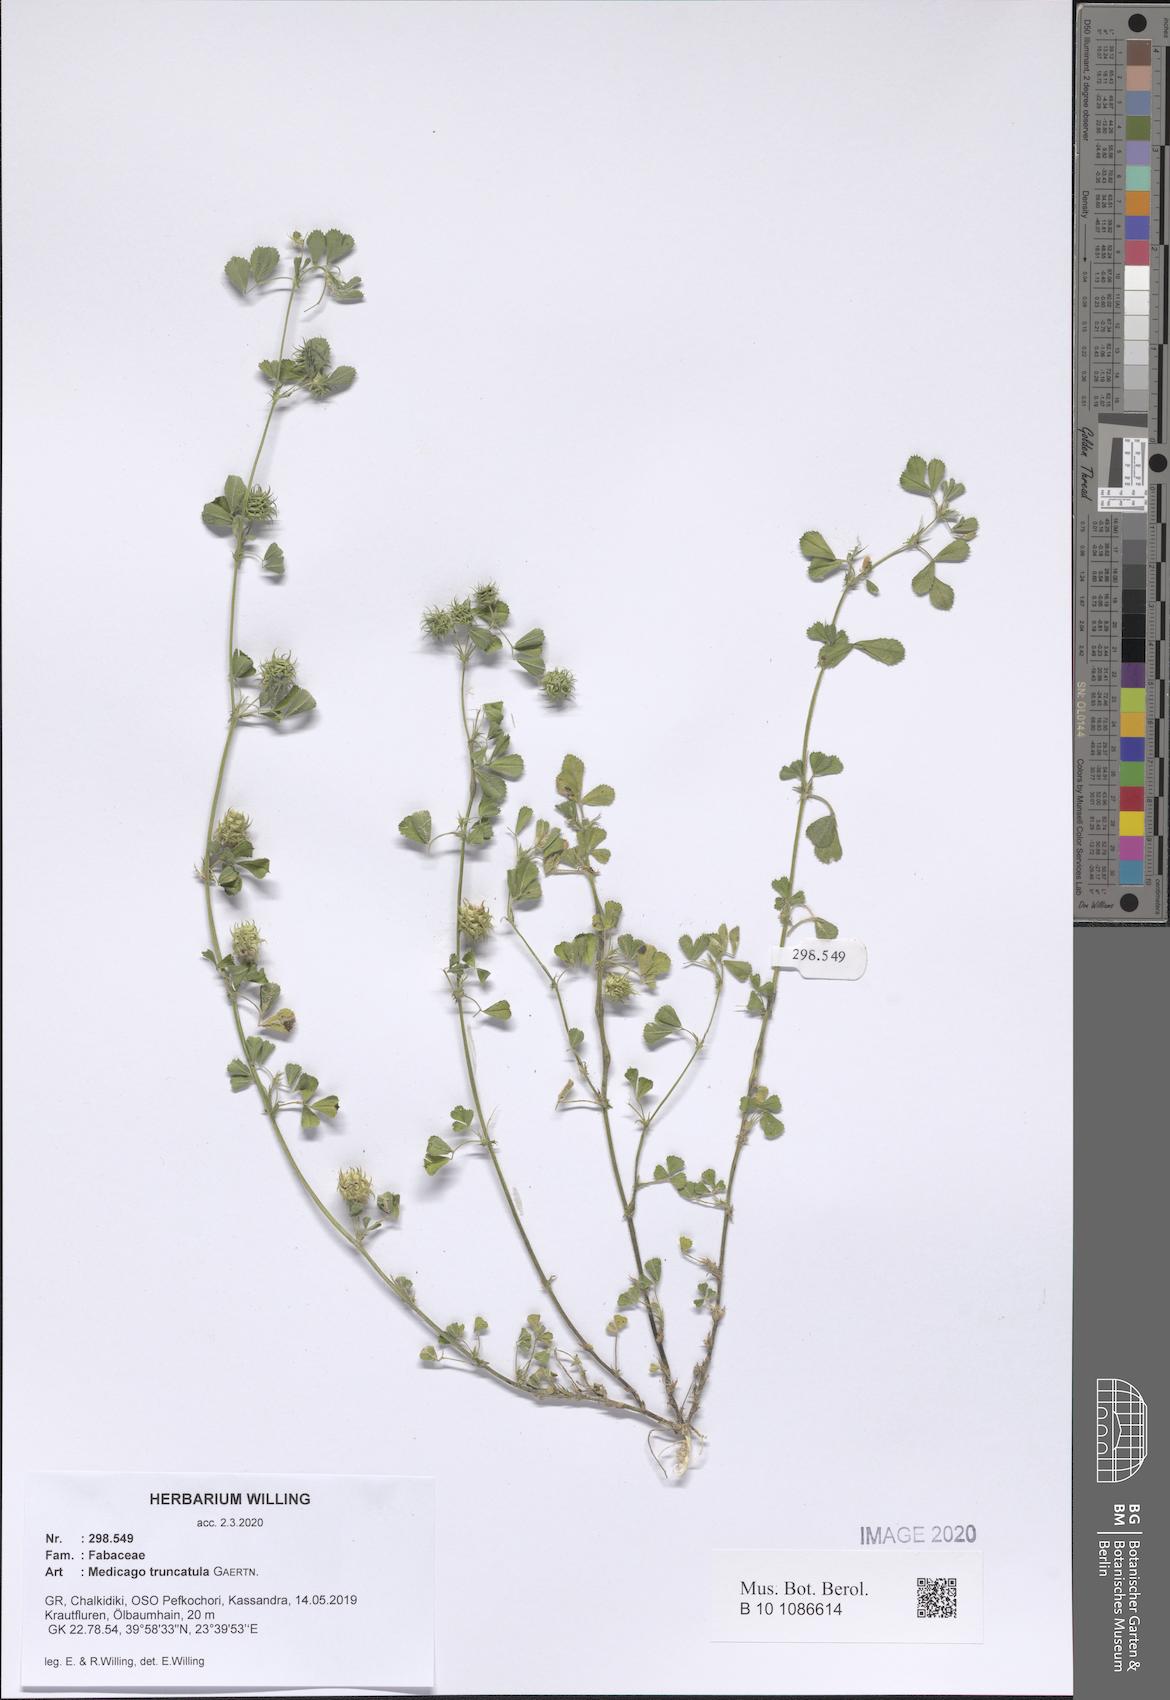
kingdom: Plantae
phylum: Tracheophyta
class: Magnoliopsida
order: Fabales
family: Fabaceae
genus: Medicago
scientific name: Medicago truncatula
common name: Strong-spined medick
